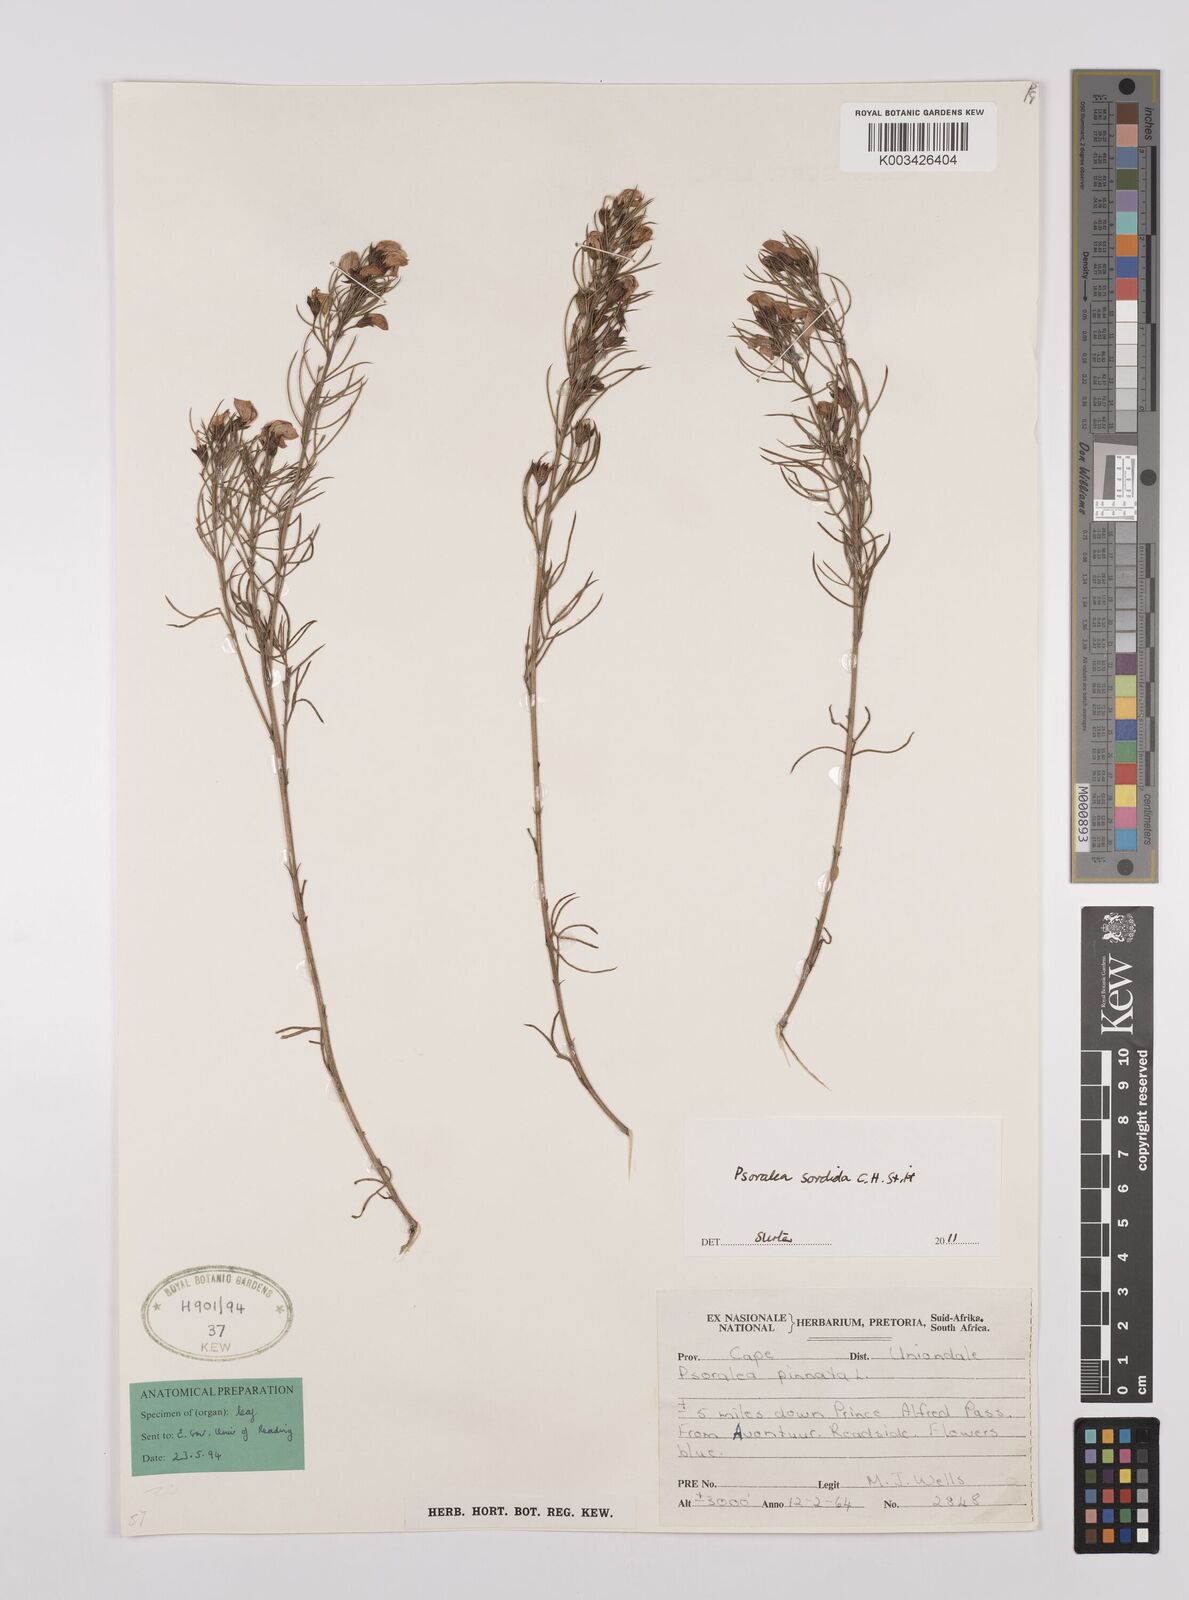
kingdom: Plantae
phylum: Tracheophyta
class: Magnoliopsida
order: Fabales
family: Fabaceae
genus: Psoralea
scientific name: Psoralea sordida
